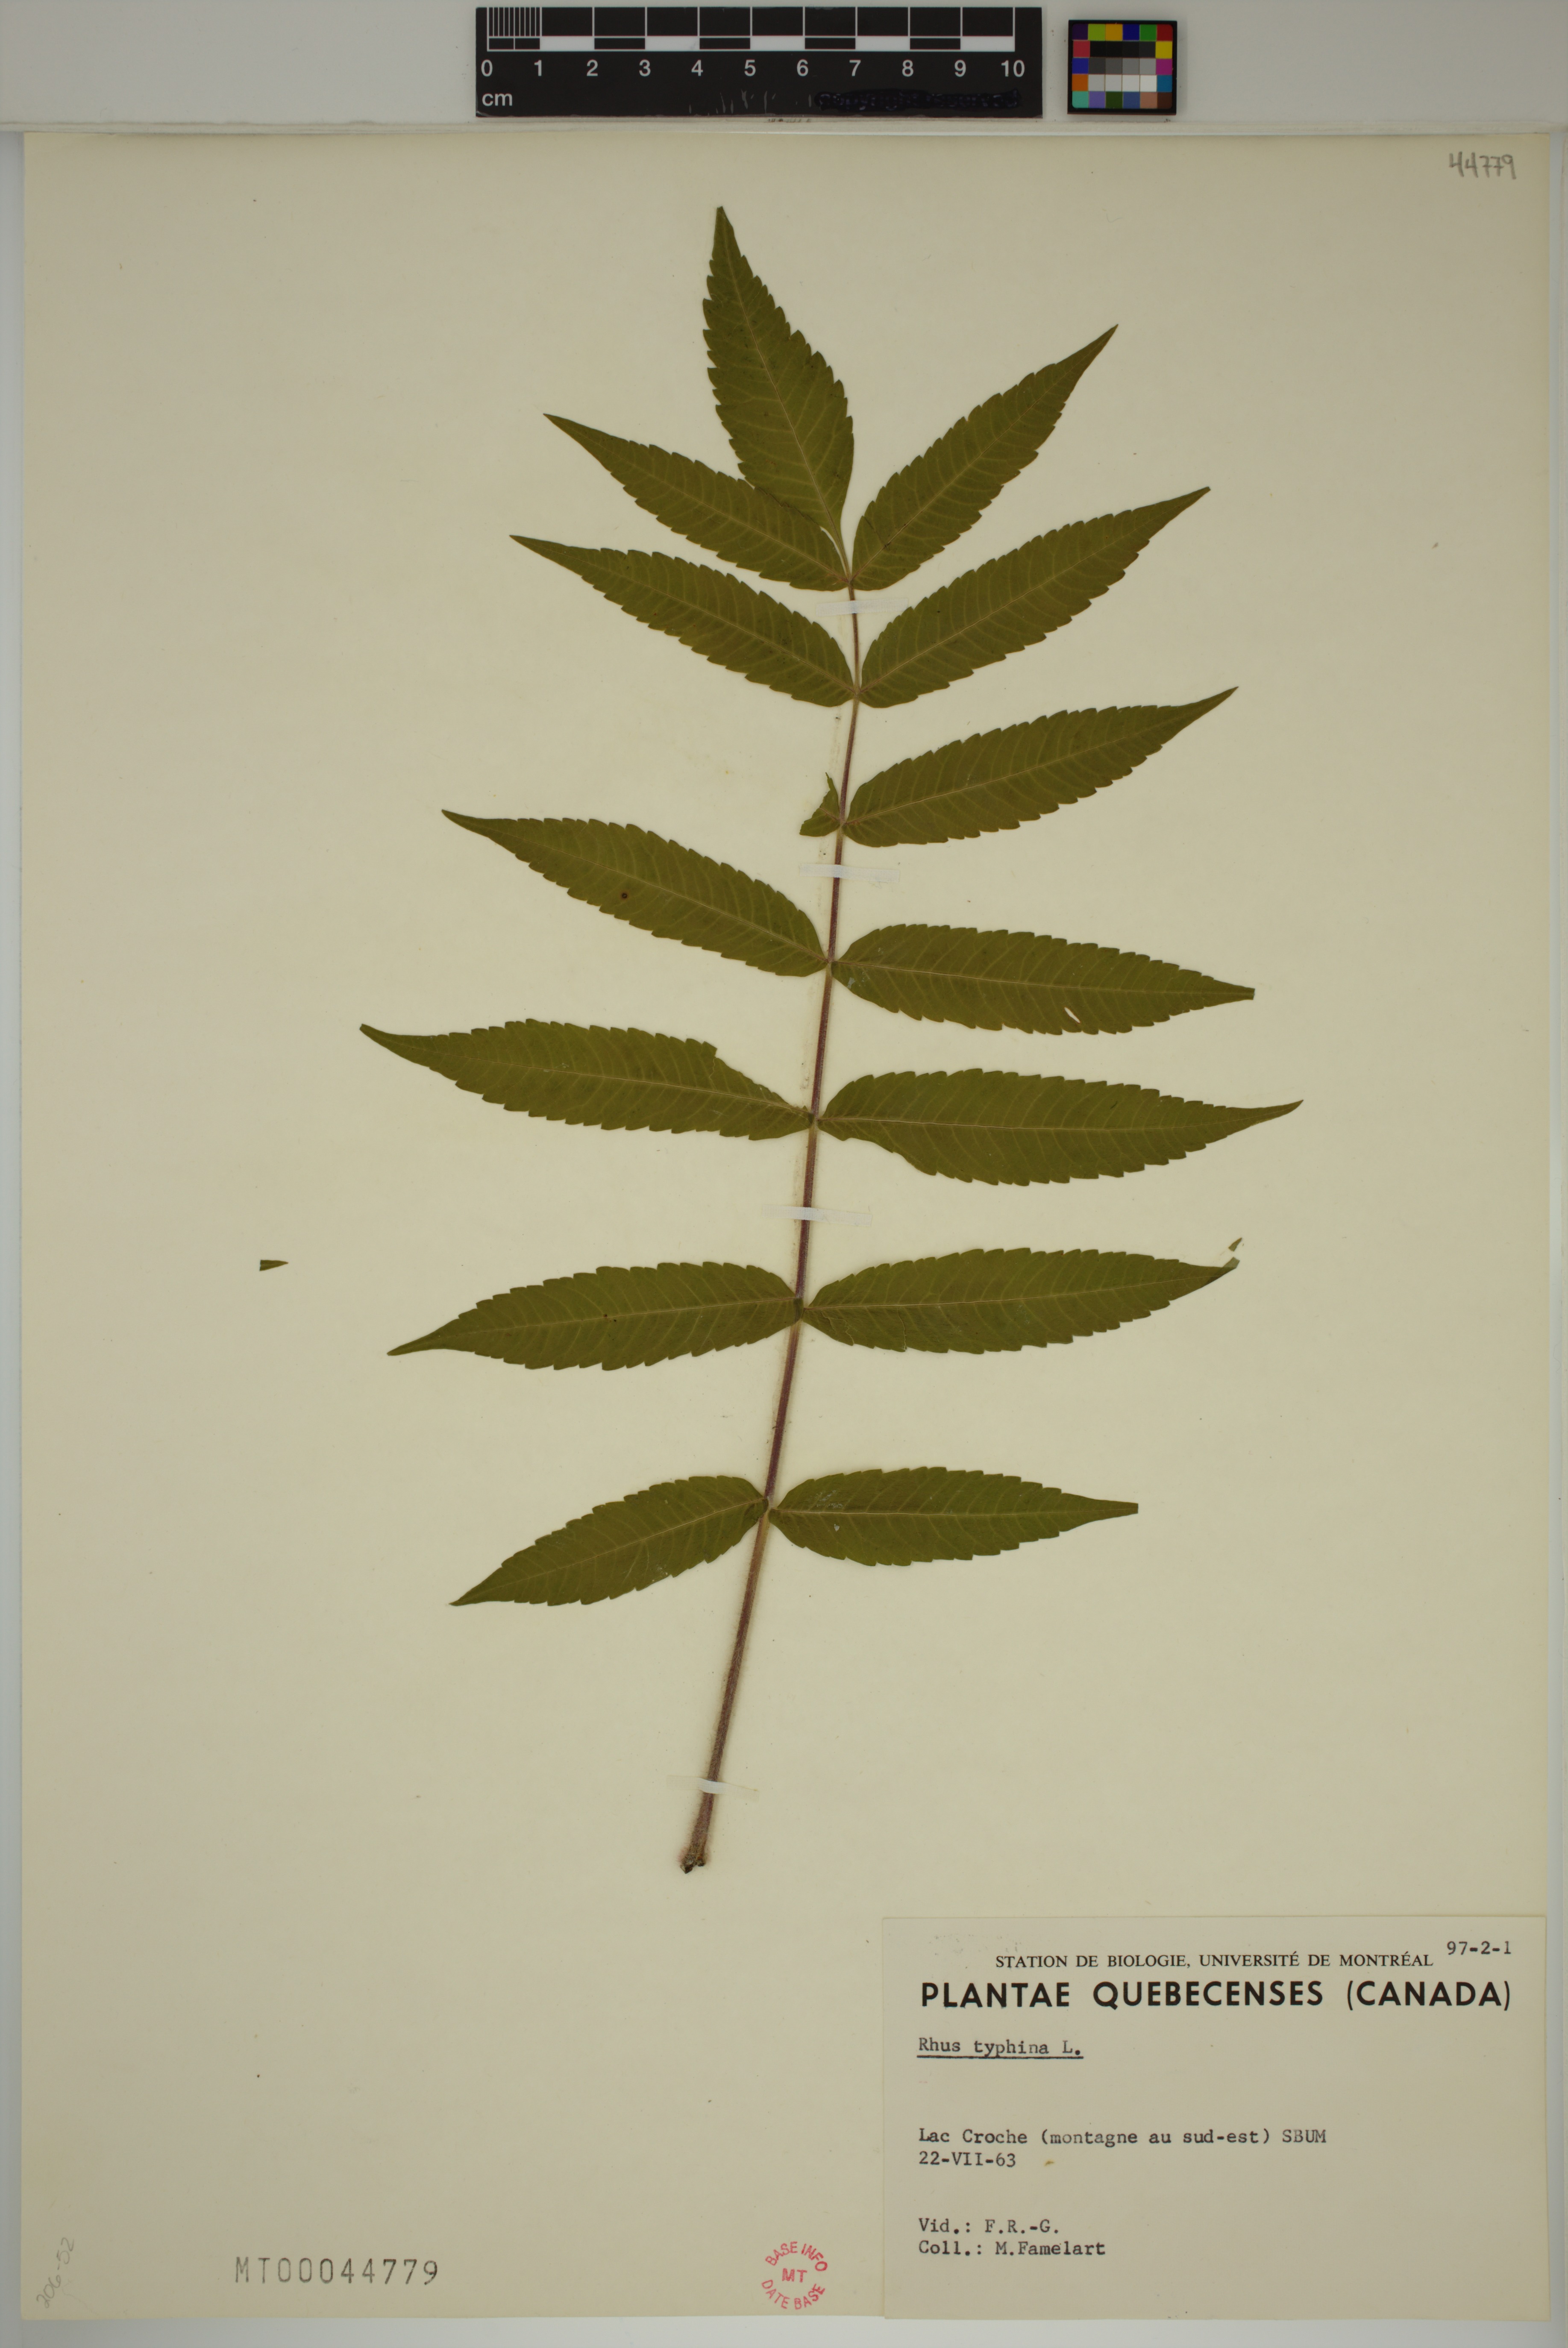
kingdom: Plantae
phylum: Tracheophyta
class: Magnoliopsida
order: Sapindales
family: Anacardiaceae
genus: Rhus
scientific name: Rhus typhina
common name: Staghorn sumac
